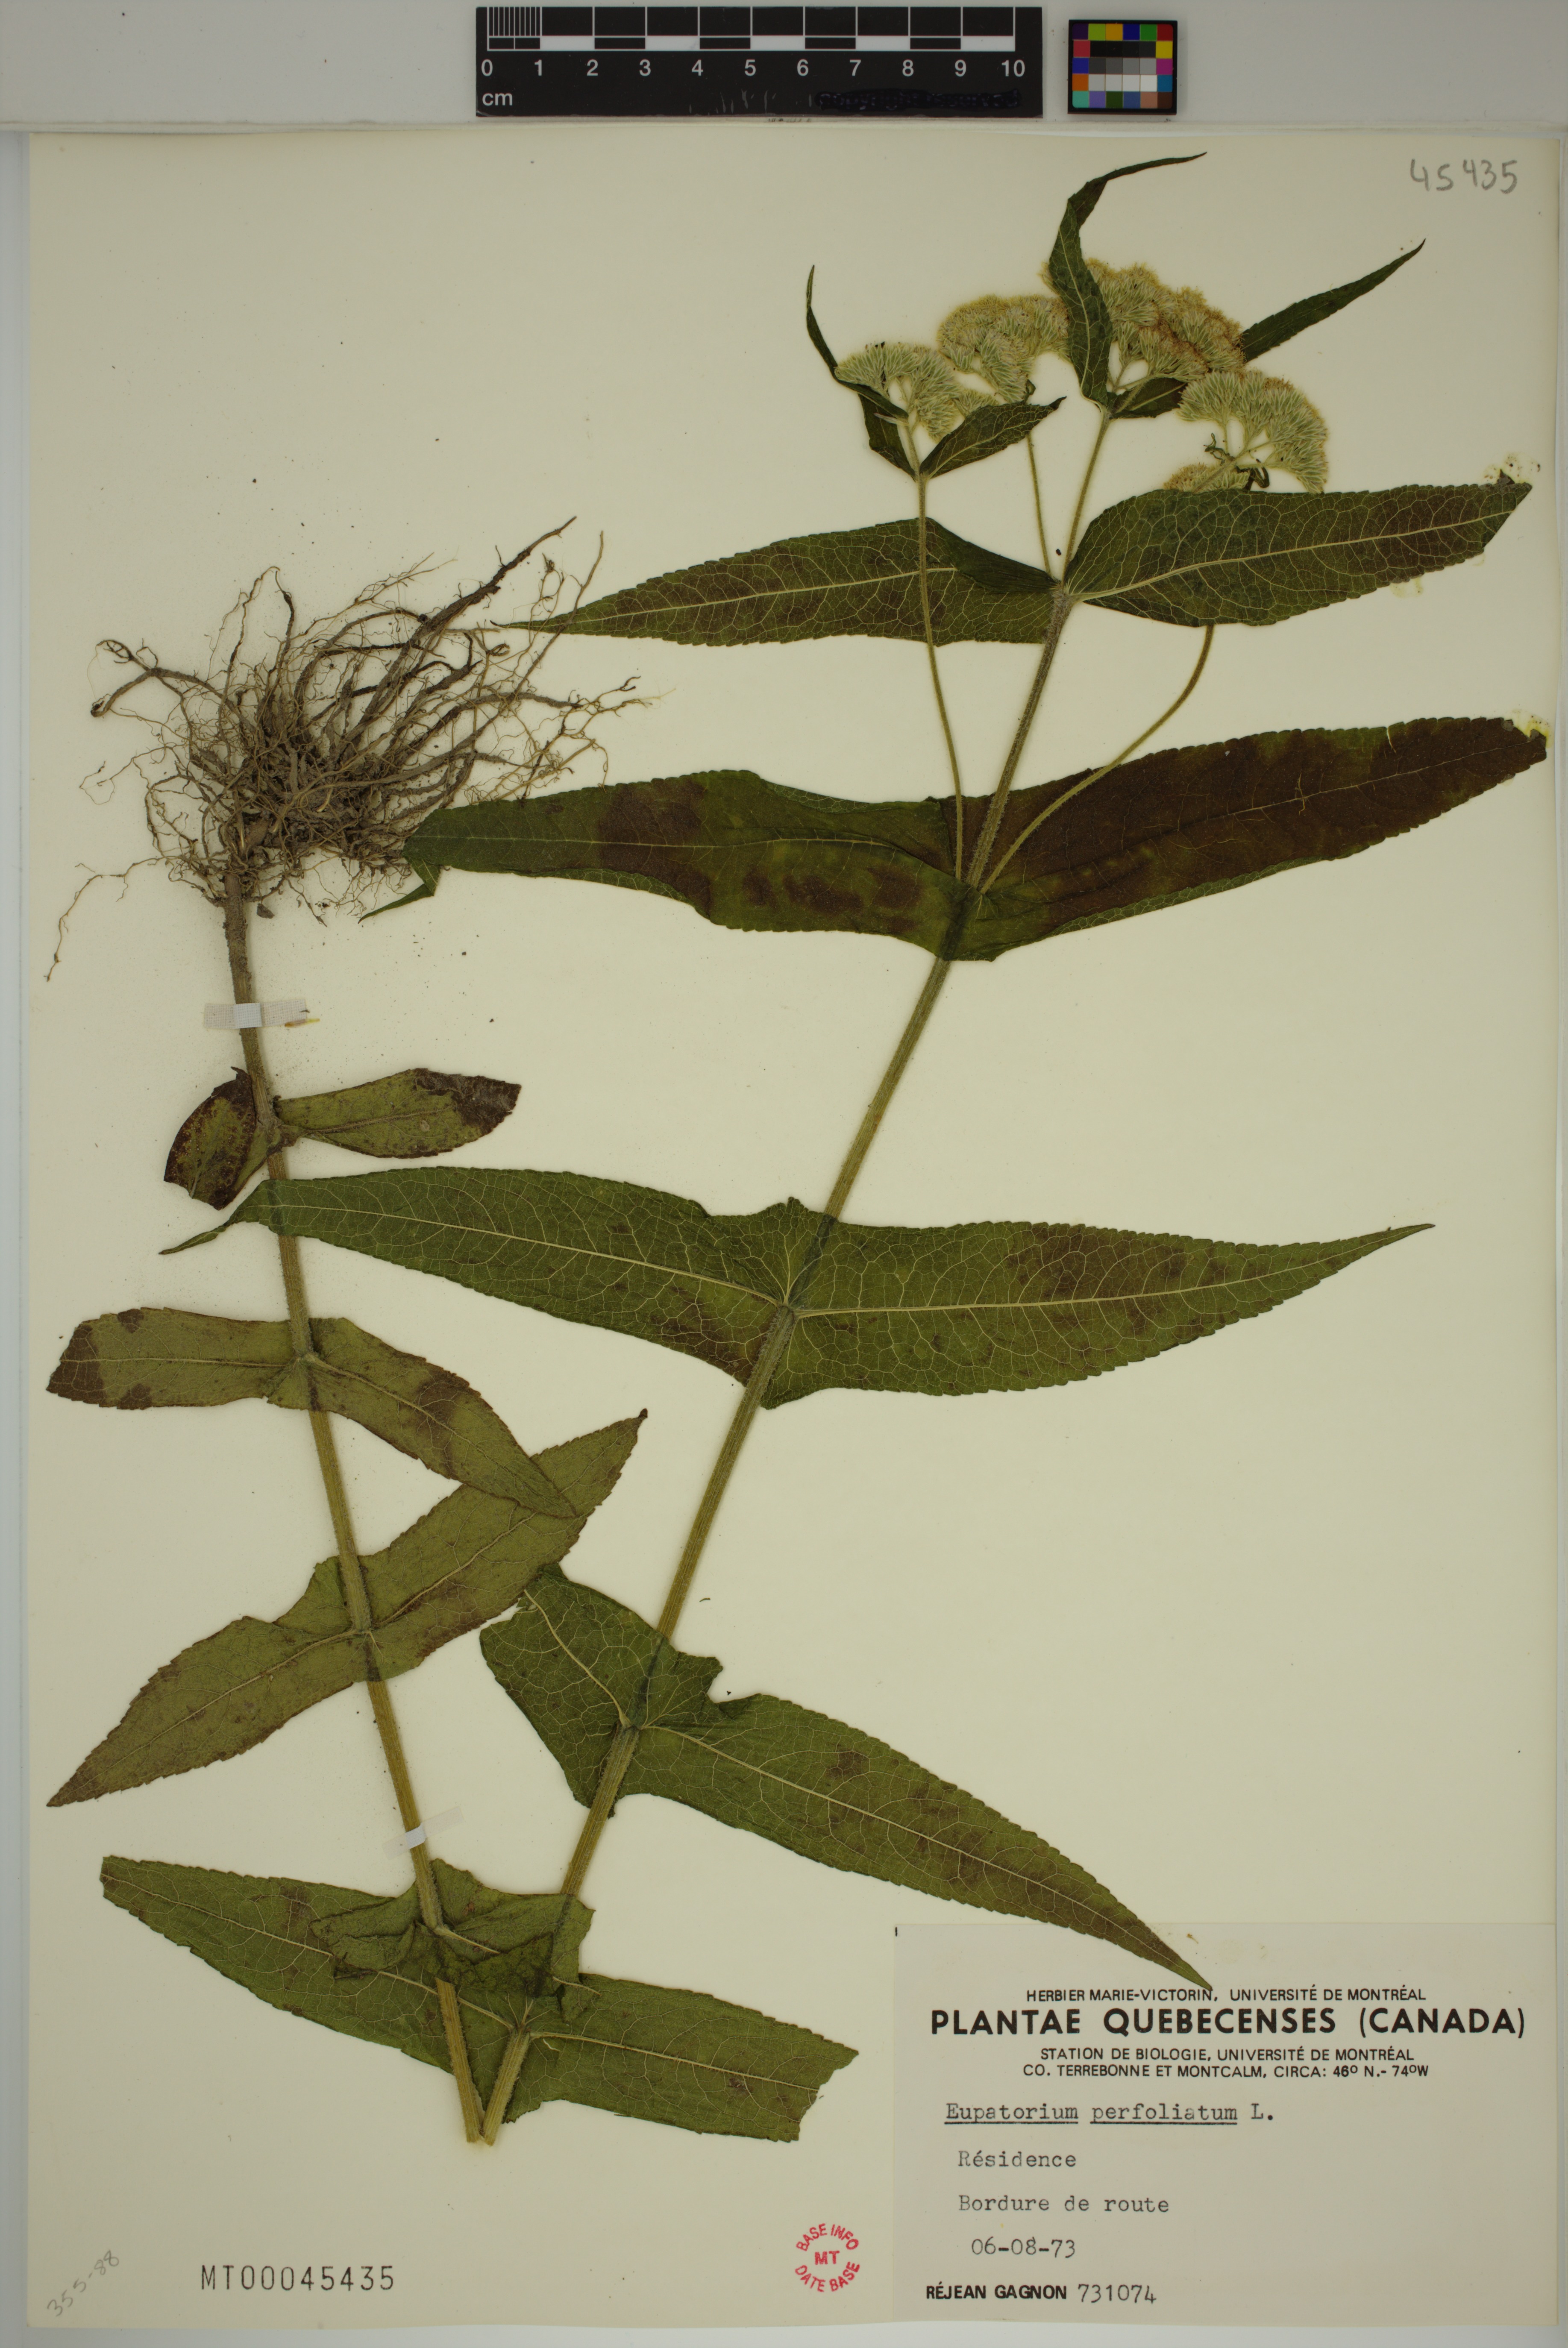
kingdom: Plantae
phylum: Tracheophyta
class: Magnoliopsida
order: Asterales
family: Asteraceae
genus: Eupatorium
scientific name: Eupatorium perfoliatum
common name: Boneset
